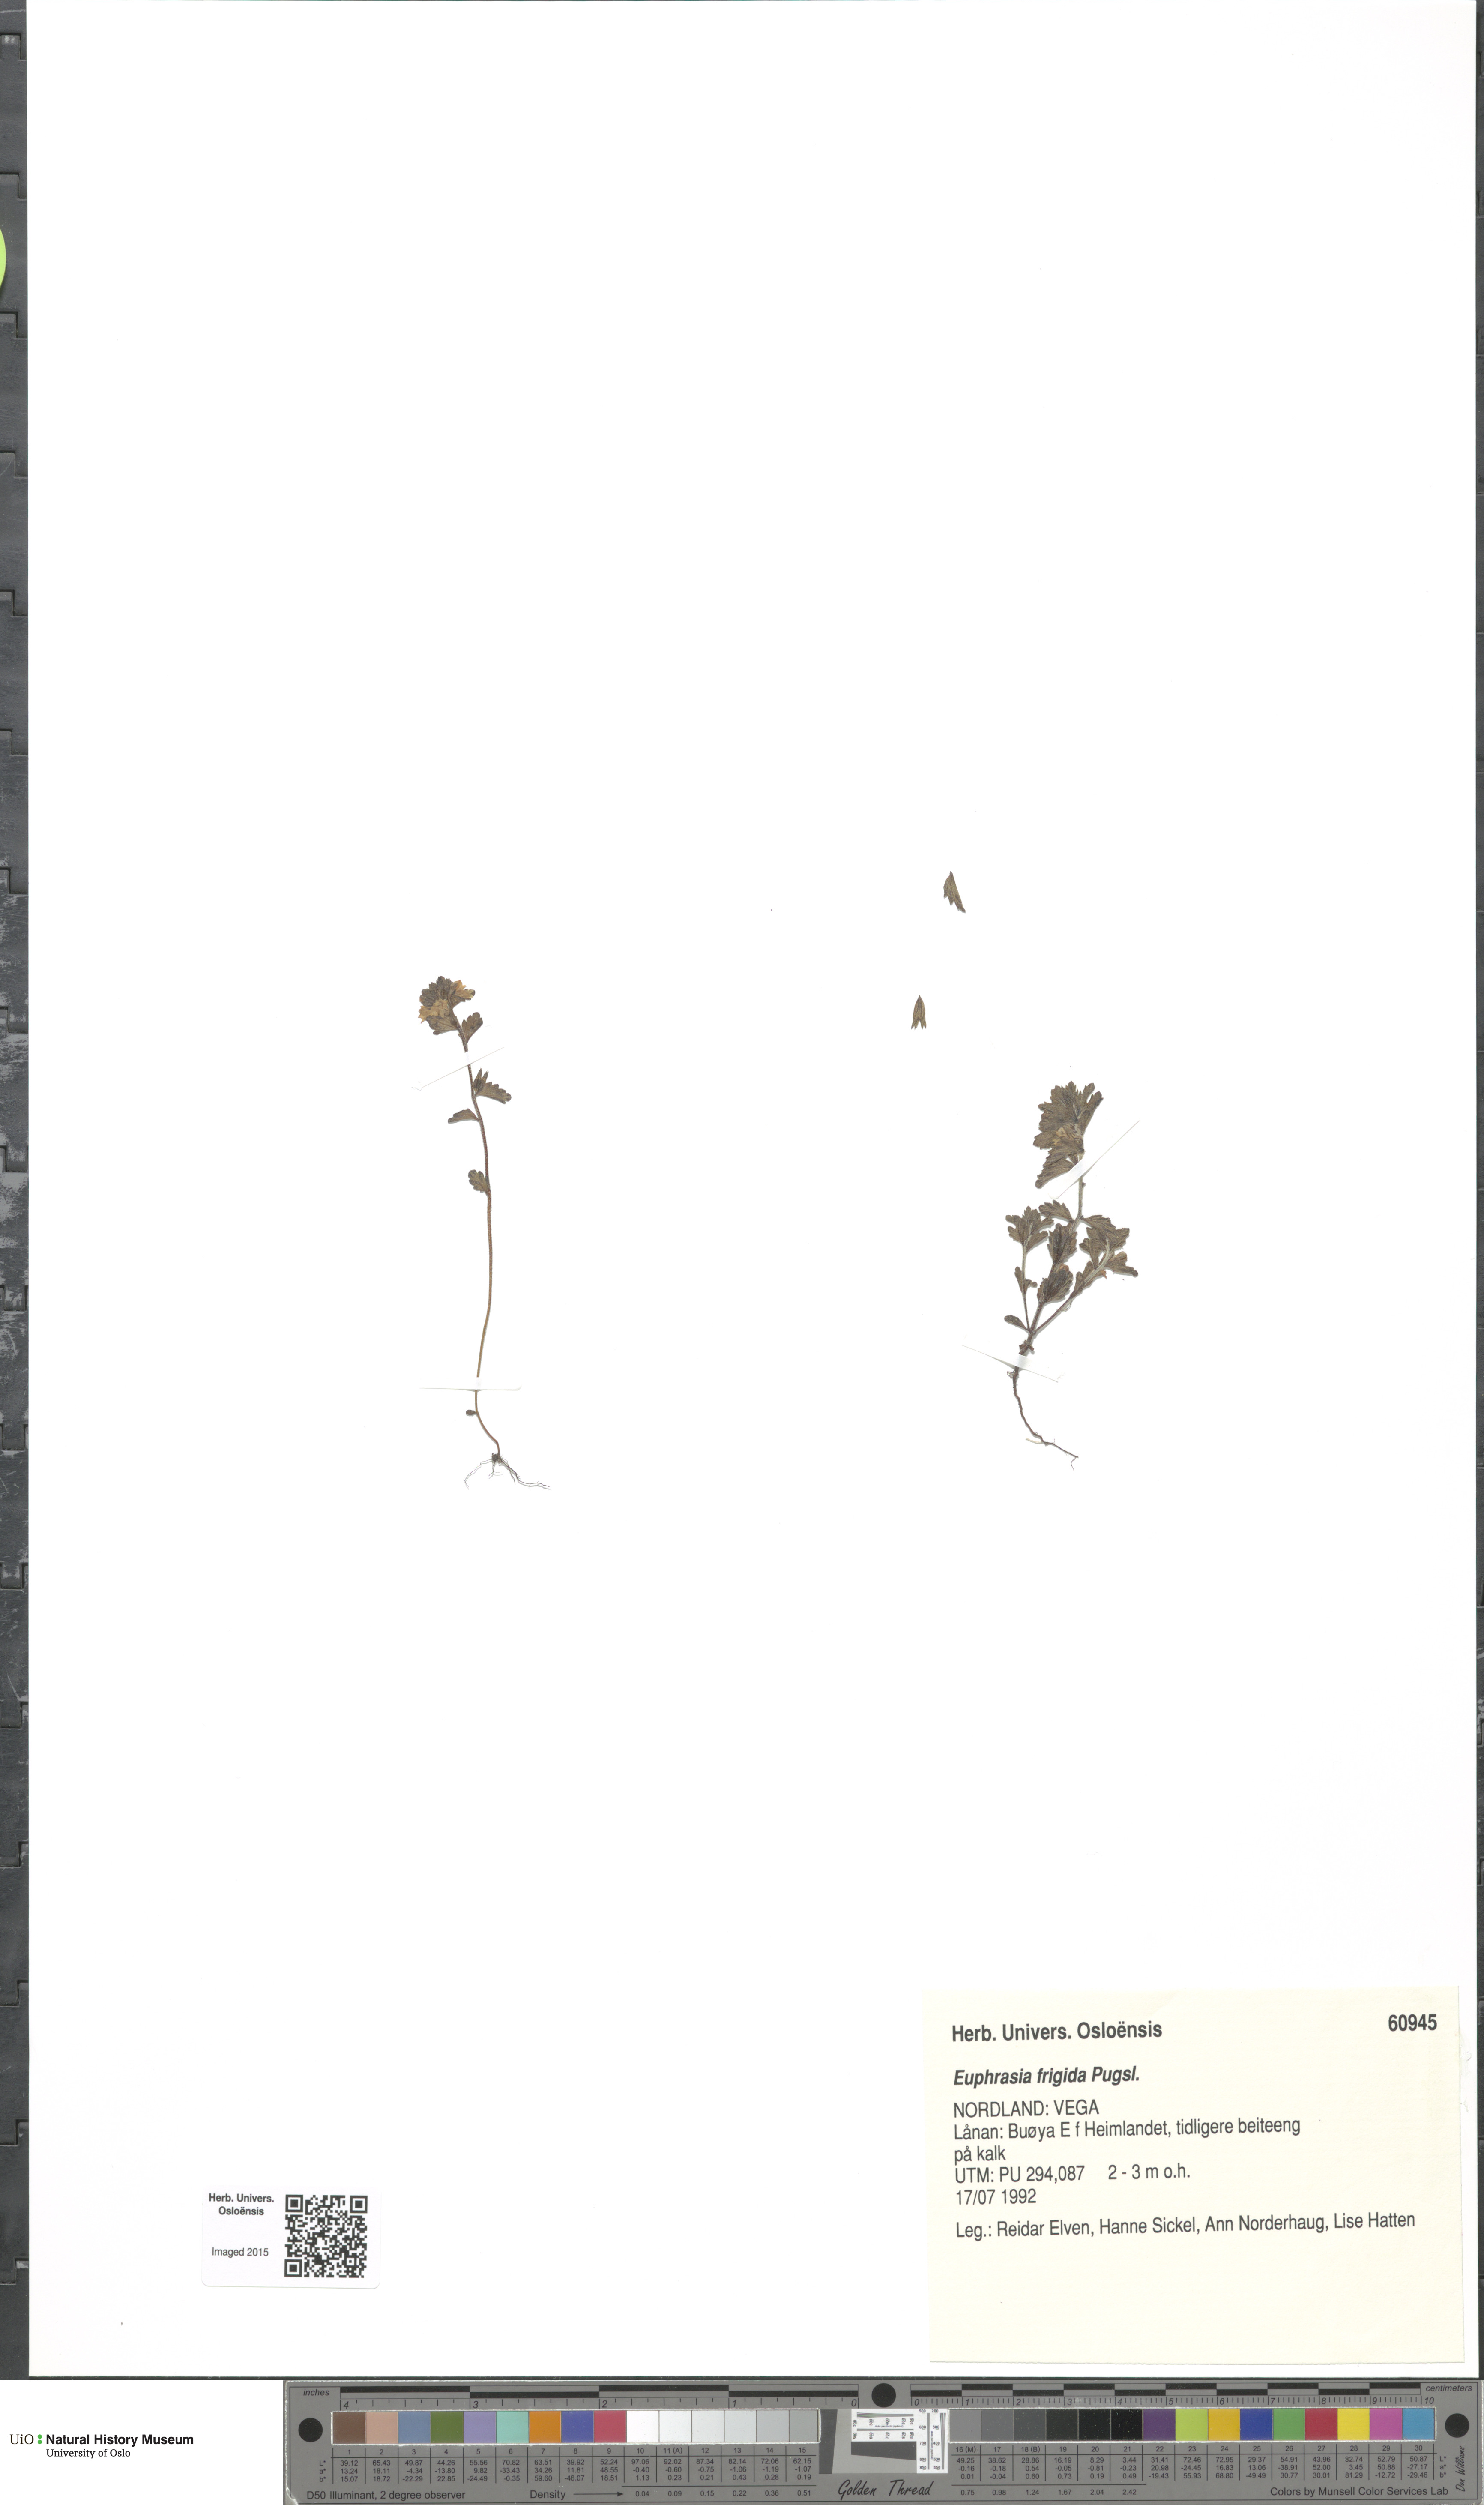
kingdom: Plantae
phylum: Tracheophyta
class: Magnoliopsida
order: Lamiales
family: Orobanchaceae
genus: Euphrasia
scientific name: Euphrasia frigida
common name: An eyebright
